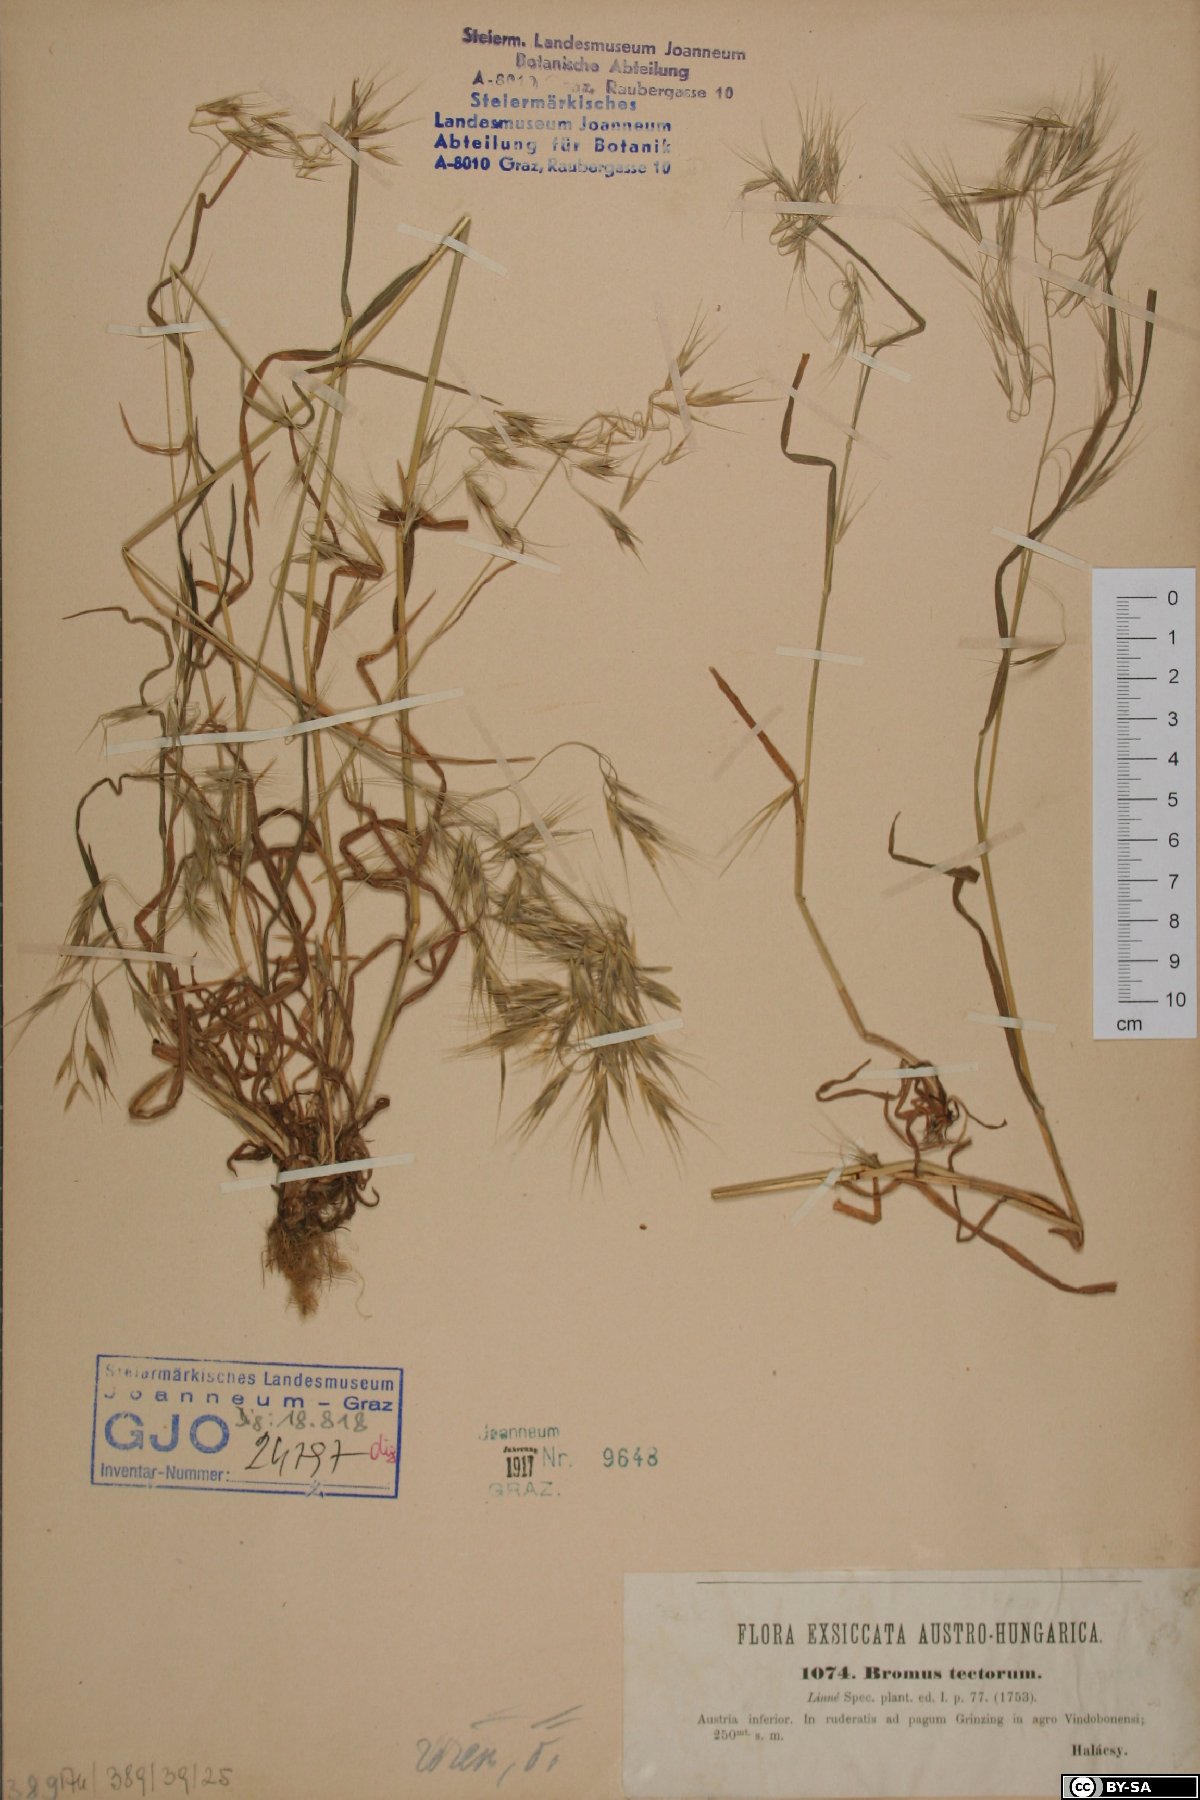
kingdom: Plantae
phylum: Tracheophyta
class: Liliopsida
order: Poales
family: Poaceae
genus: Bromus
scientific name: Bromus tectorum
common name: Cheatgrass
